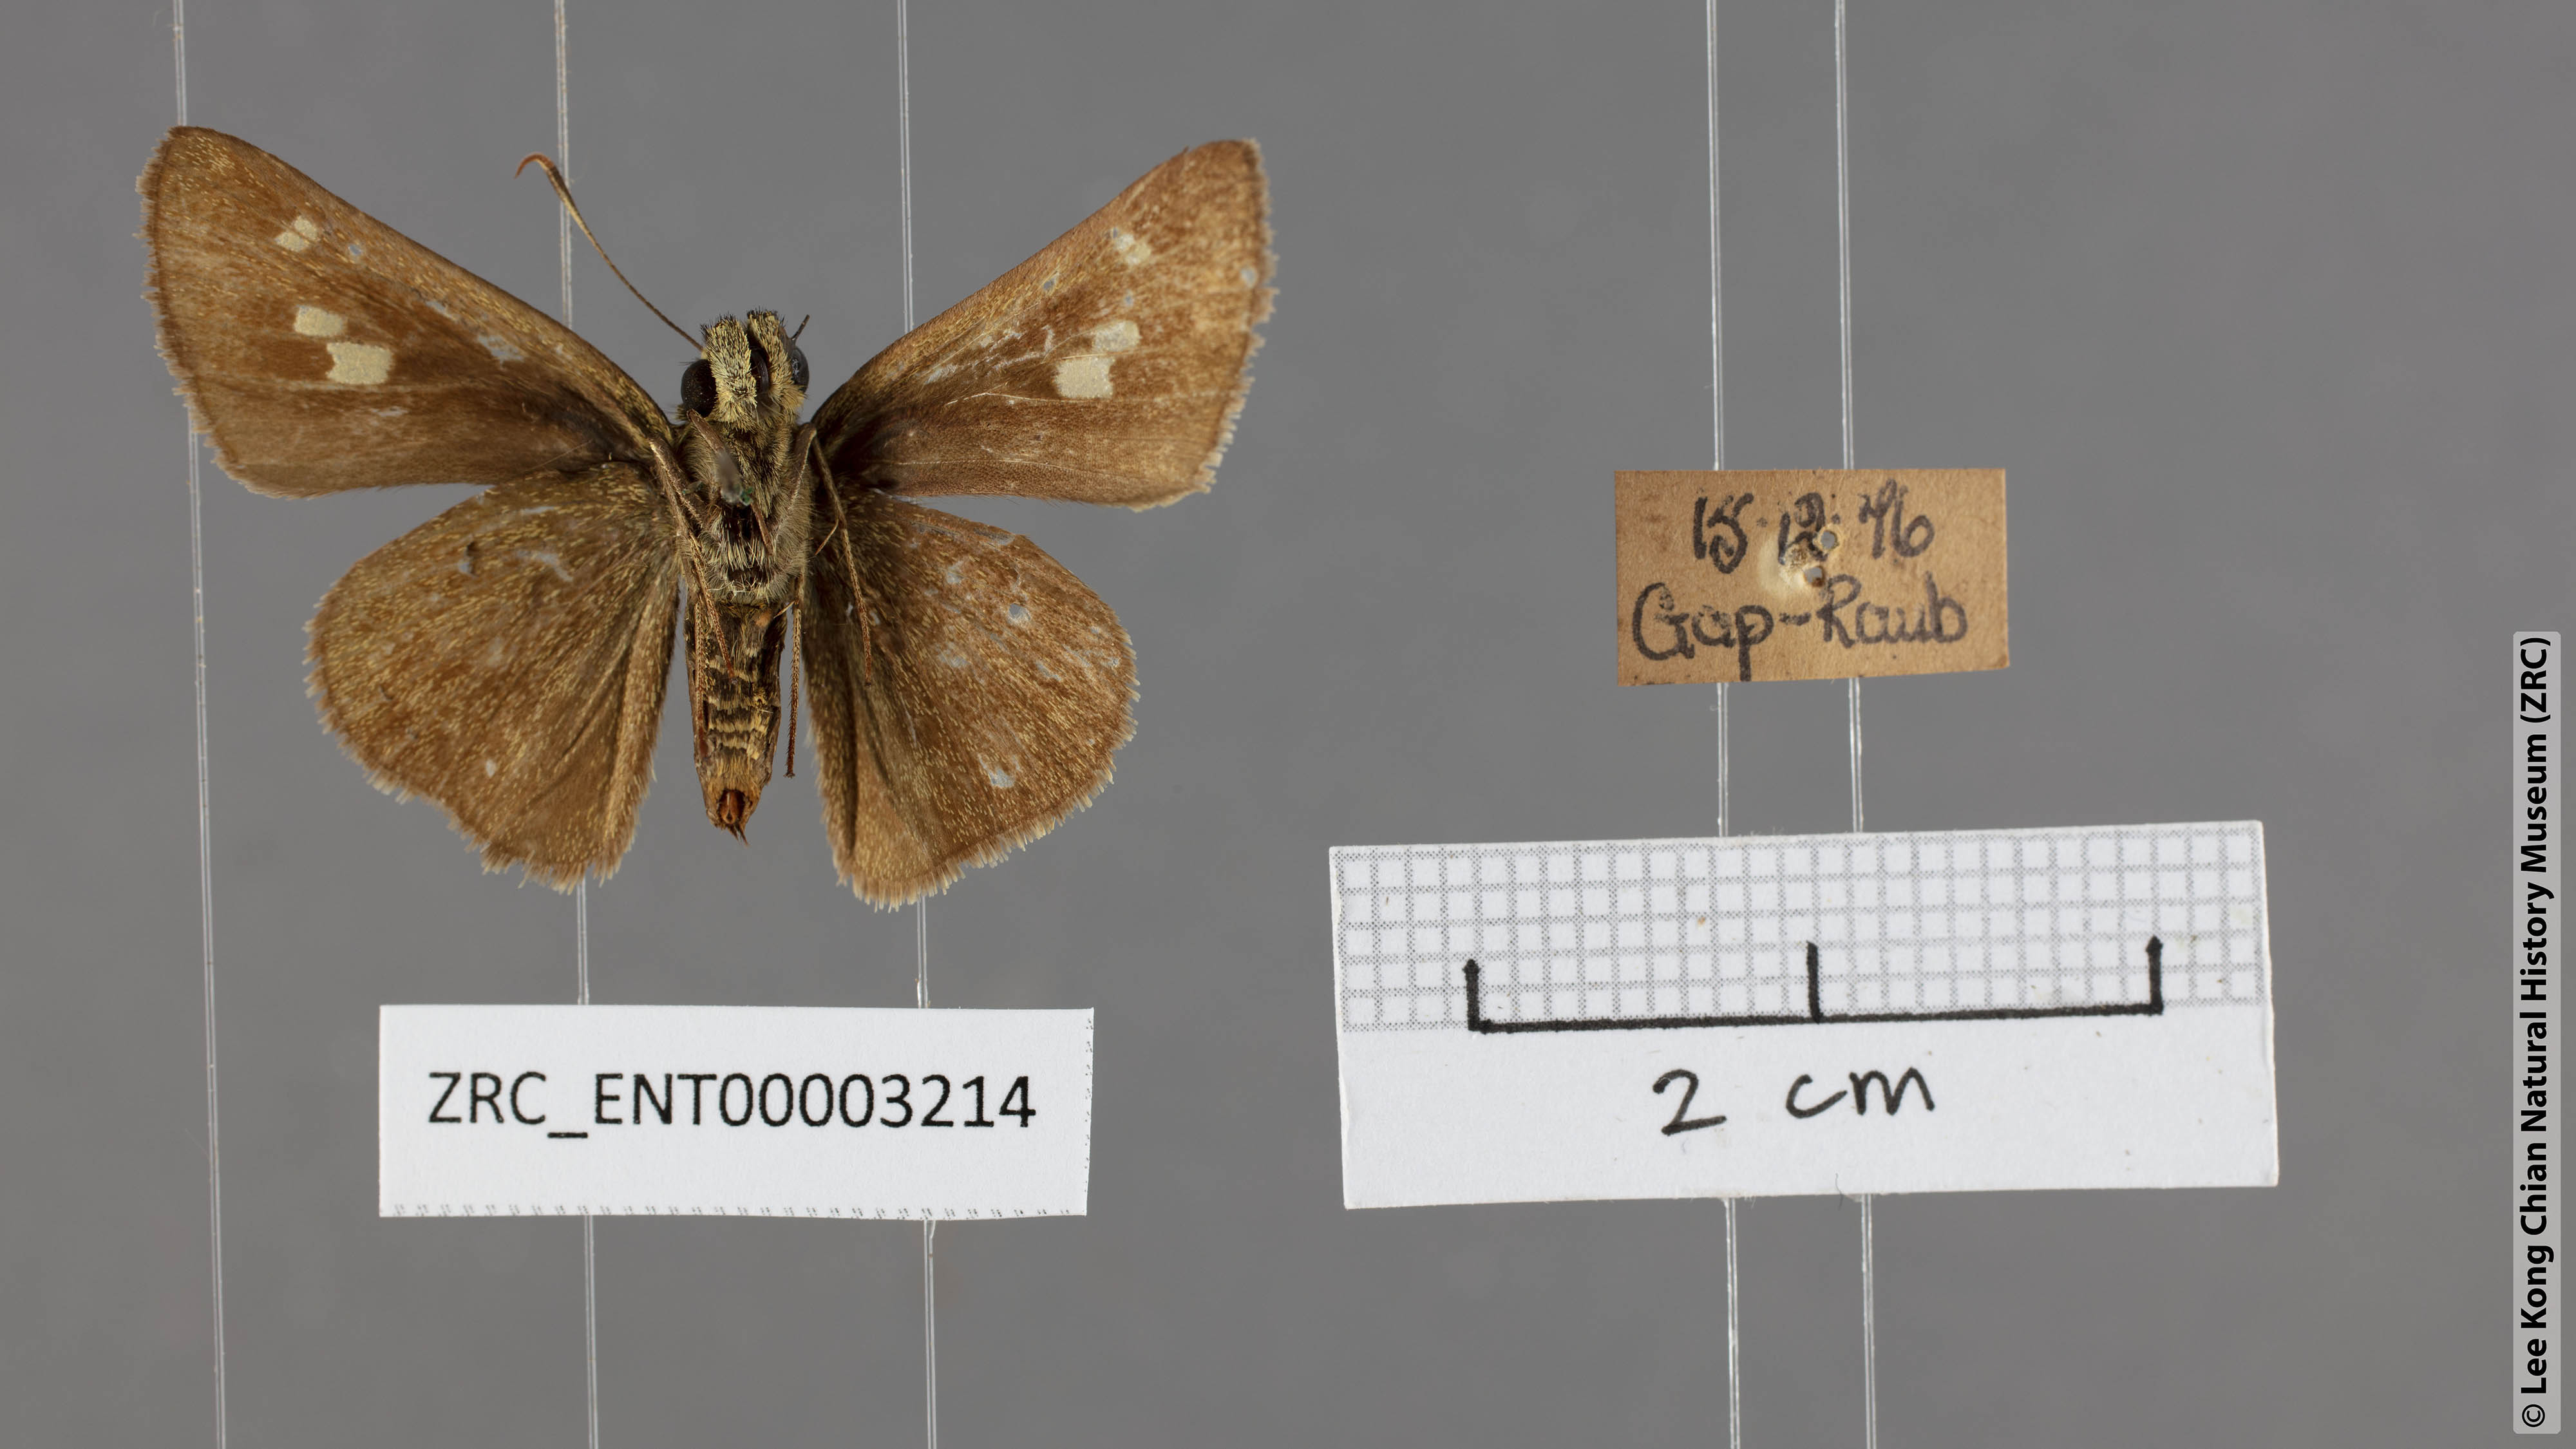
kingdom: Animalia
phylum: Arthropoda
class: Insecta
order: Lepidoptera
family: Hesperiidae
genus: Halpe
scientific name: Halpe arcuata
